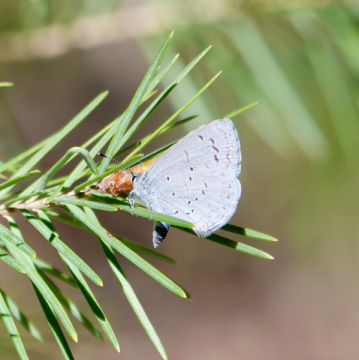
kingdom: Animalia
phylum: Arthropoda
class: Insecta
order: Lepidoptera
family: Lycaenidae
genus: Celastrina
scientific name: Celastrina ladon
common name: Echo Azure
